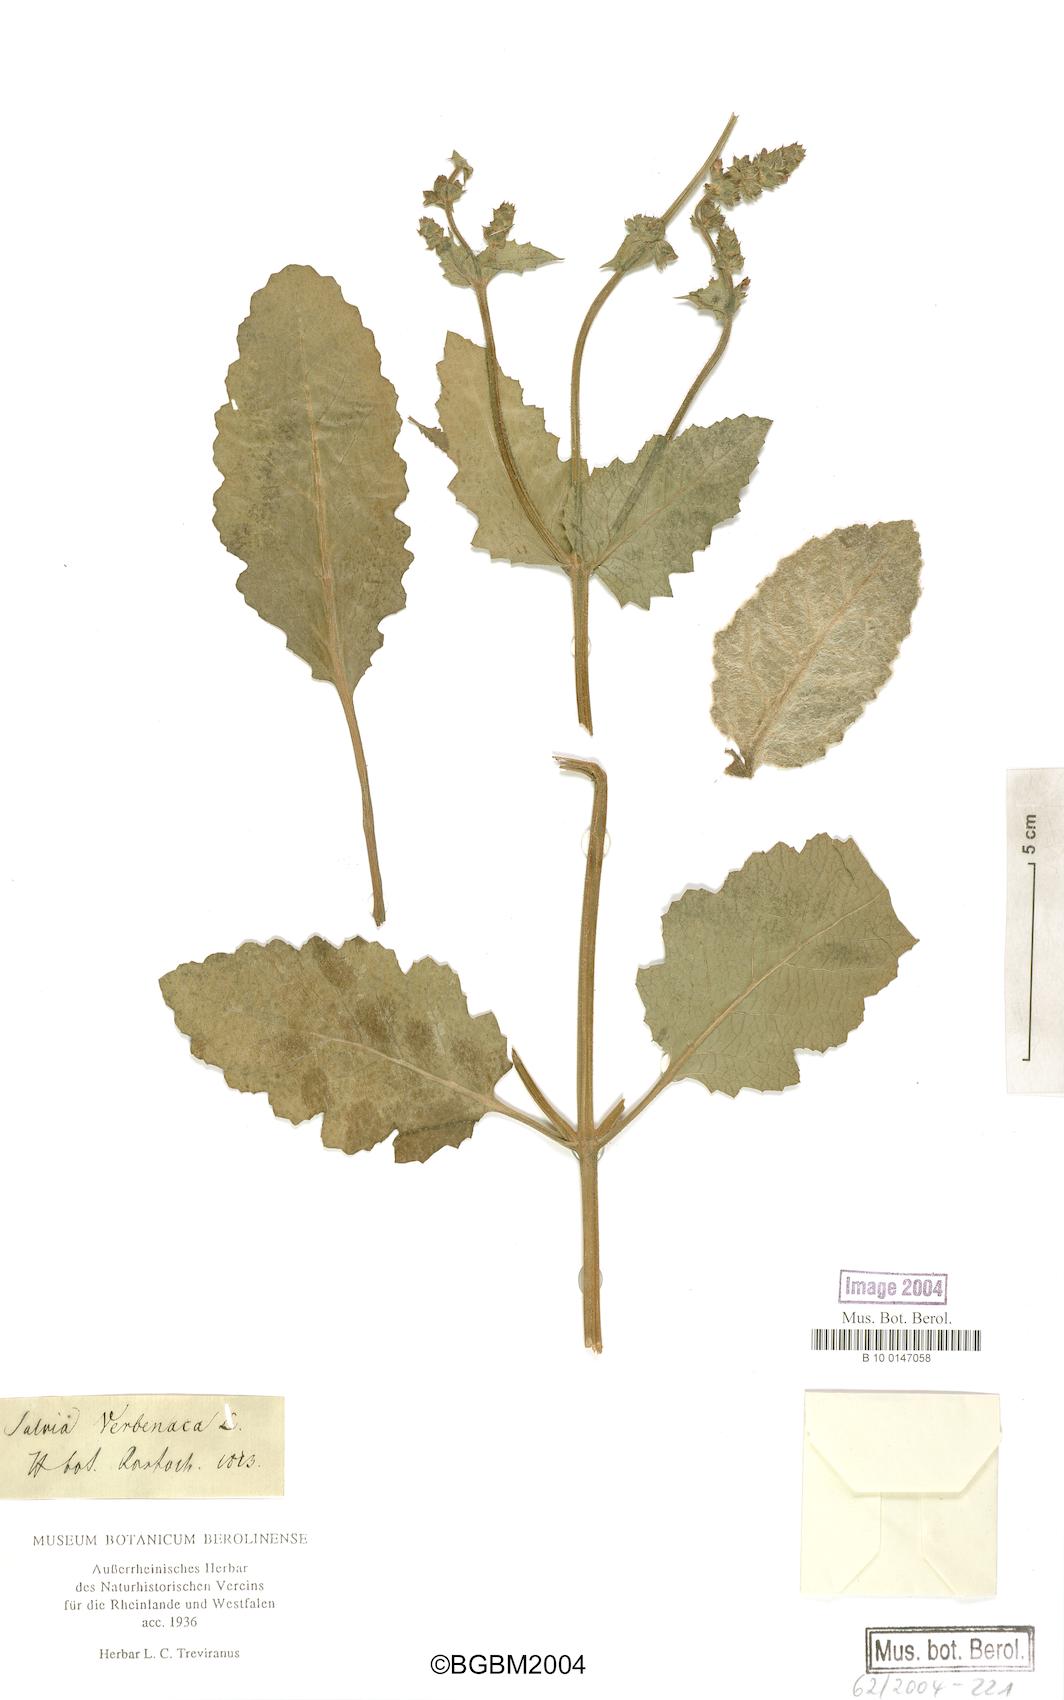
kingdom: Plantae
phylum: Tracheophyta
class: Magnoliopsida
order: Lamiales
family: Lamiaceae
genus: Salvia
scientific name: Salvia verbenaca
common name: Wild clary
